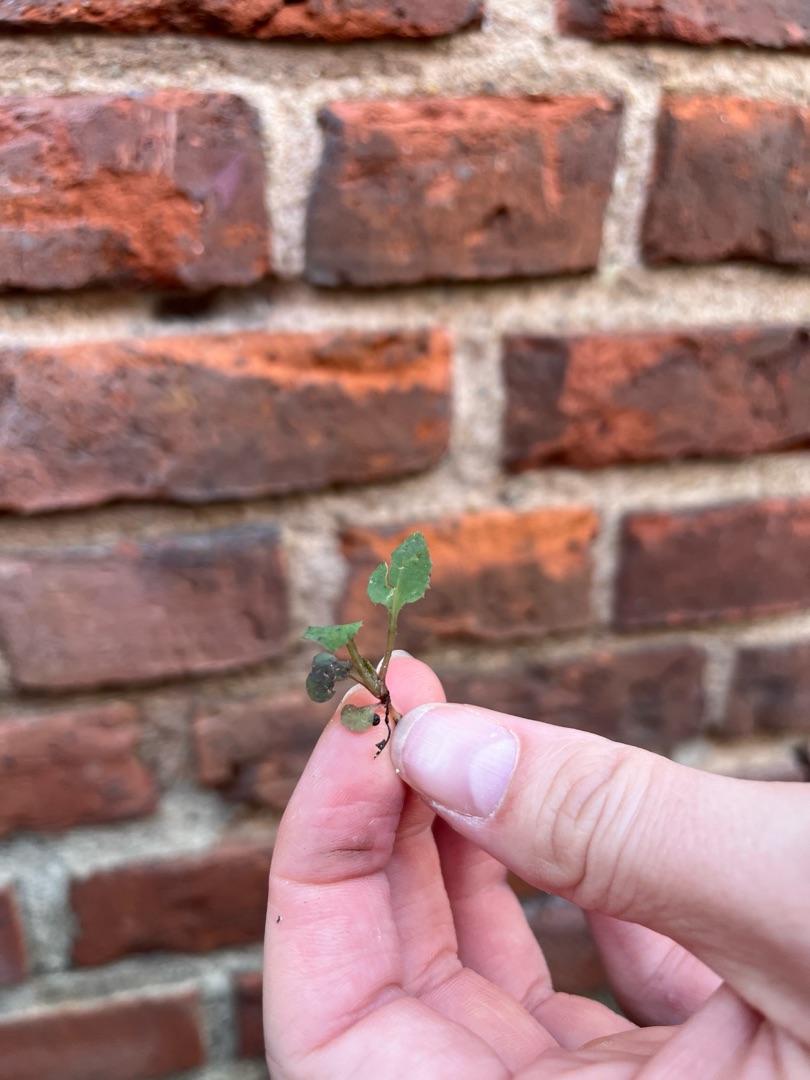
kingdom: Plantae
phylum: Tracheophyta
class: Magnoliopsida
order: Asterales
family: Asteraceae
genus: Sonchus
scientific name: Sonchus oleraceus
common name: Almindelig svinemælk
